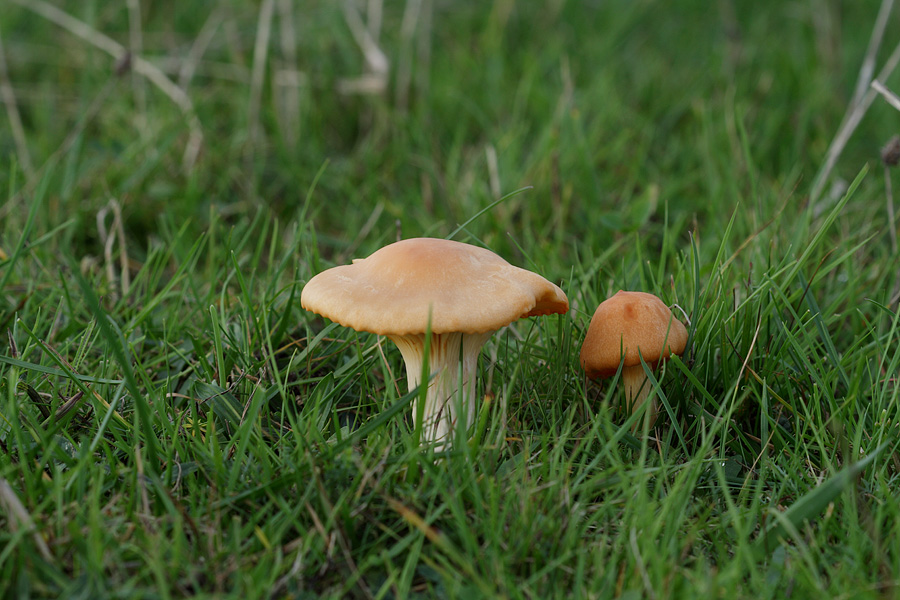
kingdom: Fungi
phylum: Basidiomycota
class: Agaricomycetes
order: Agaricales
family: Hygrophoraceae
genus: Cuphophyllus
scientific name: Cuphophyllus pratensis
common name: eng-vokshat
